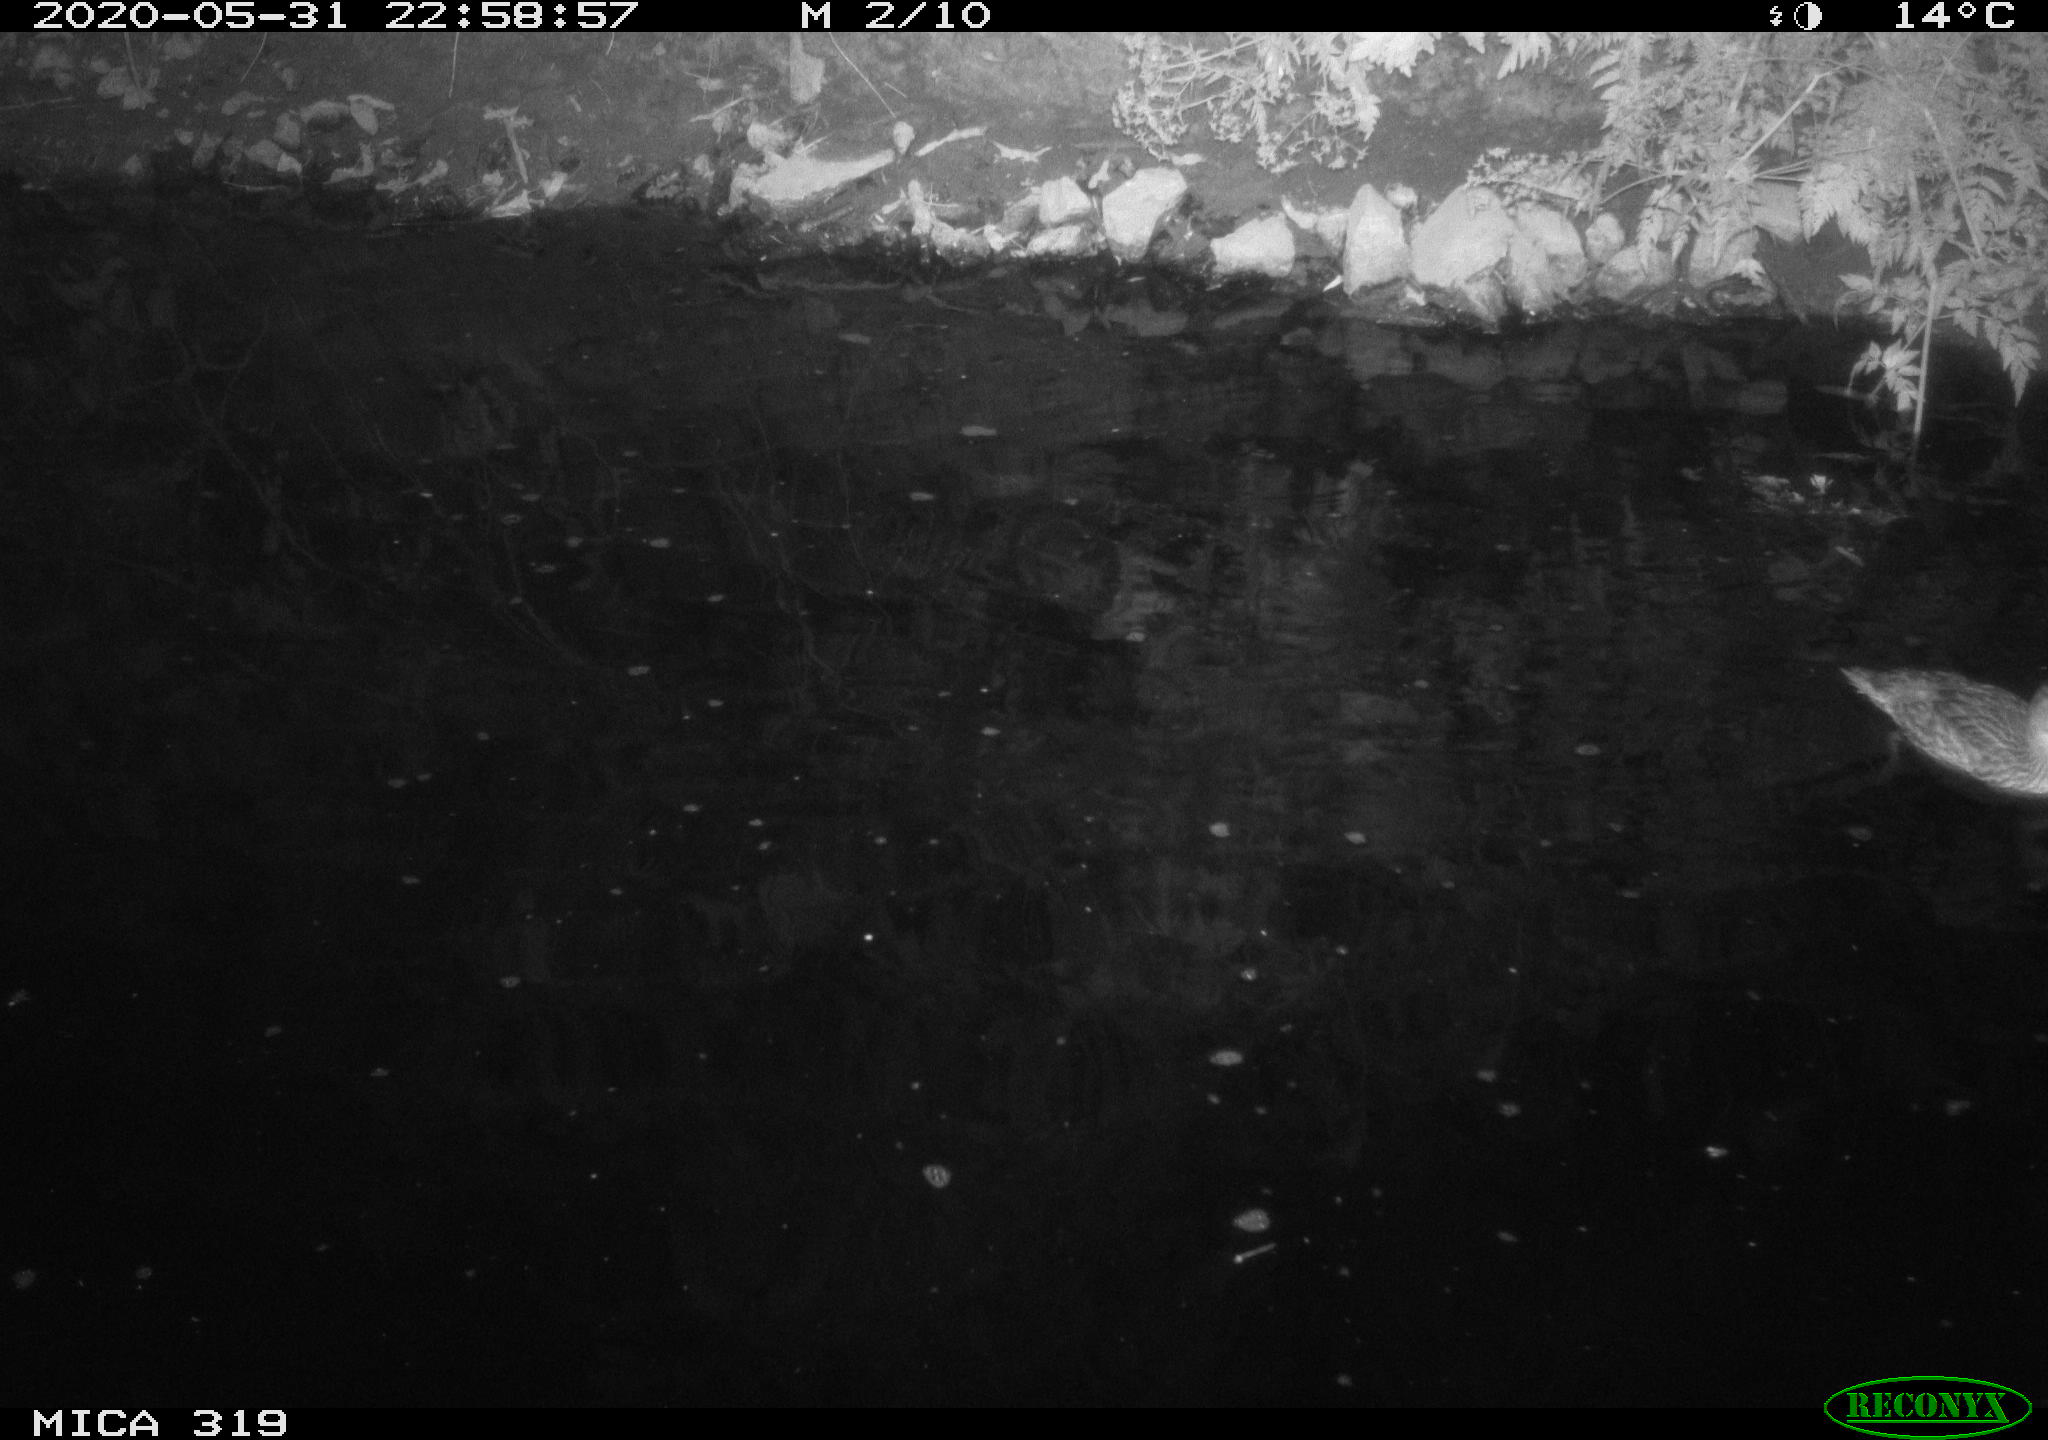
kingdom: Animalia
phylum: Chordata
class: Aves
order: Anseriformes
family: Anatidae
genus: Anas
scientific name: Anas platyrhynchos
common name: Mallard
